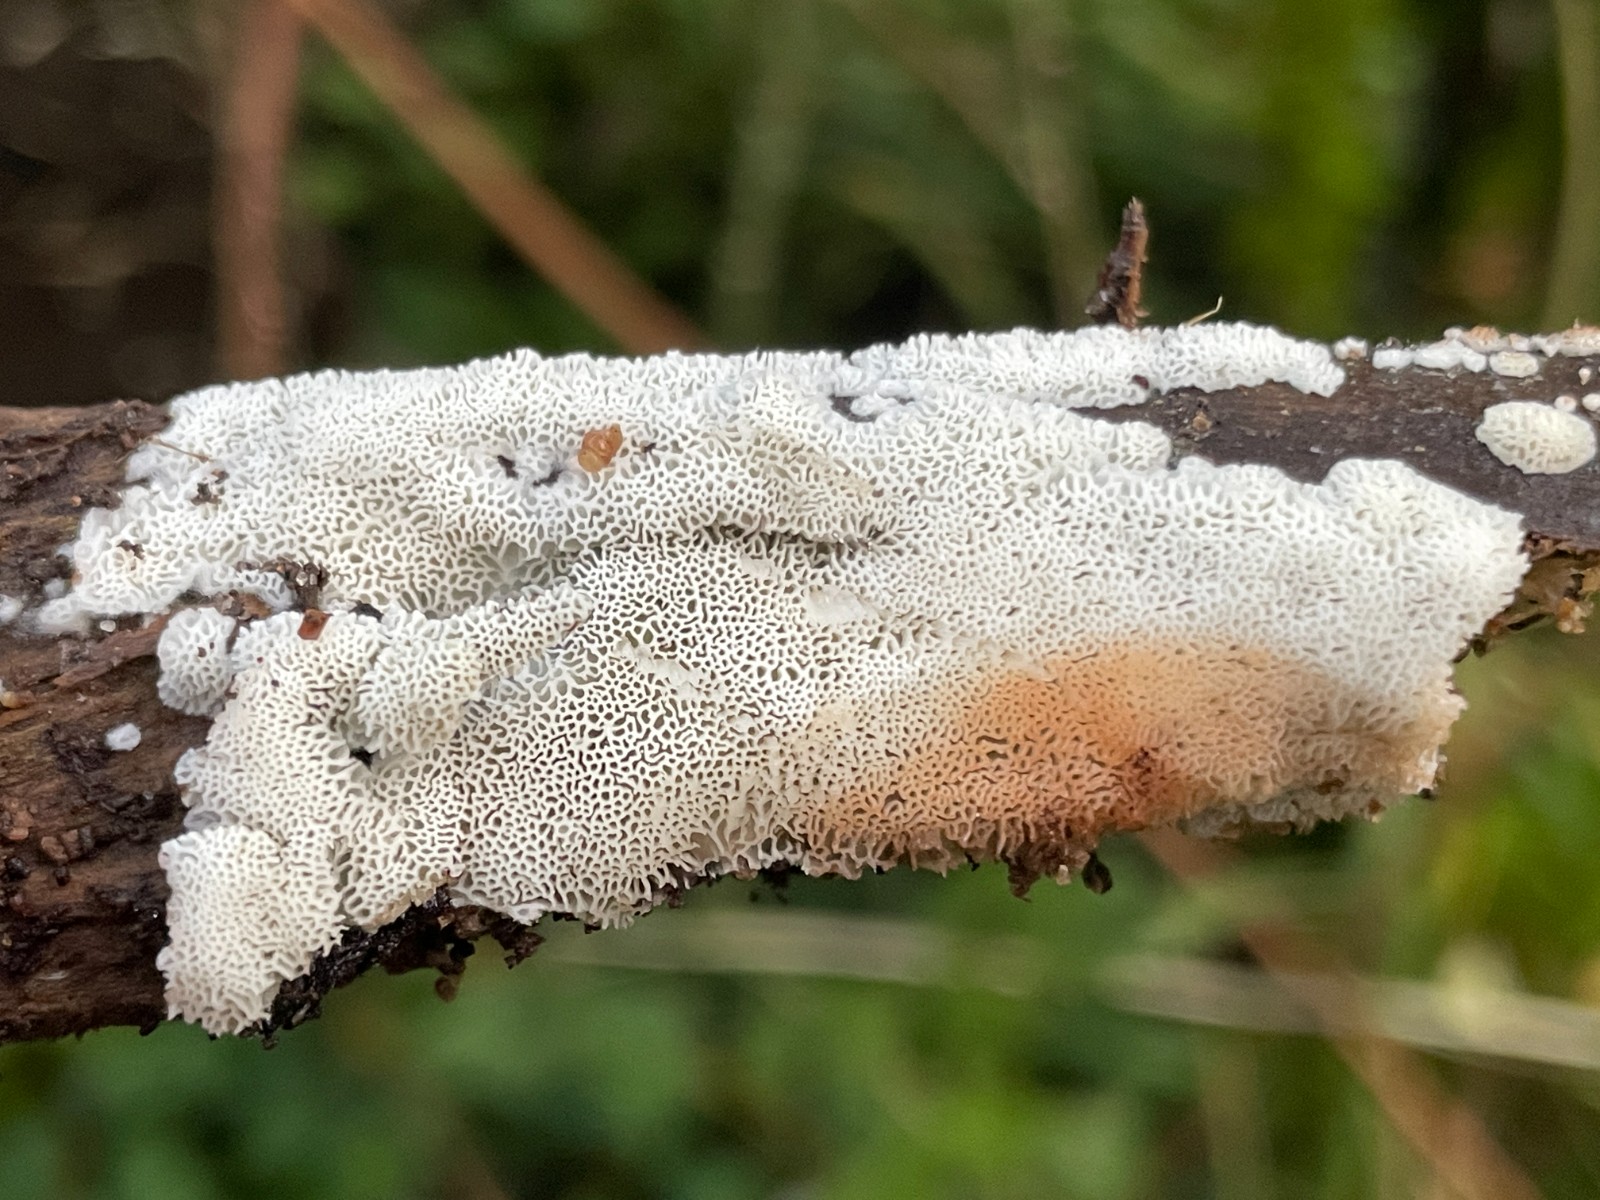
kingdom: Fungi
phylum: Basidiomycota
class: Agaricomycetes
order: Polyporales
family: Meripilaceae
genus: Rigidoporus
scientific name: Rigidoporus sanguinolentus
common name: blod-skorpeporesvamp
